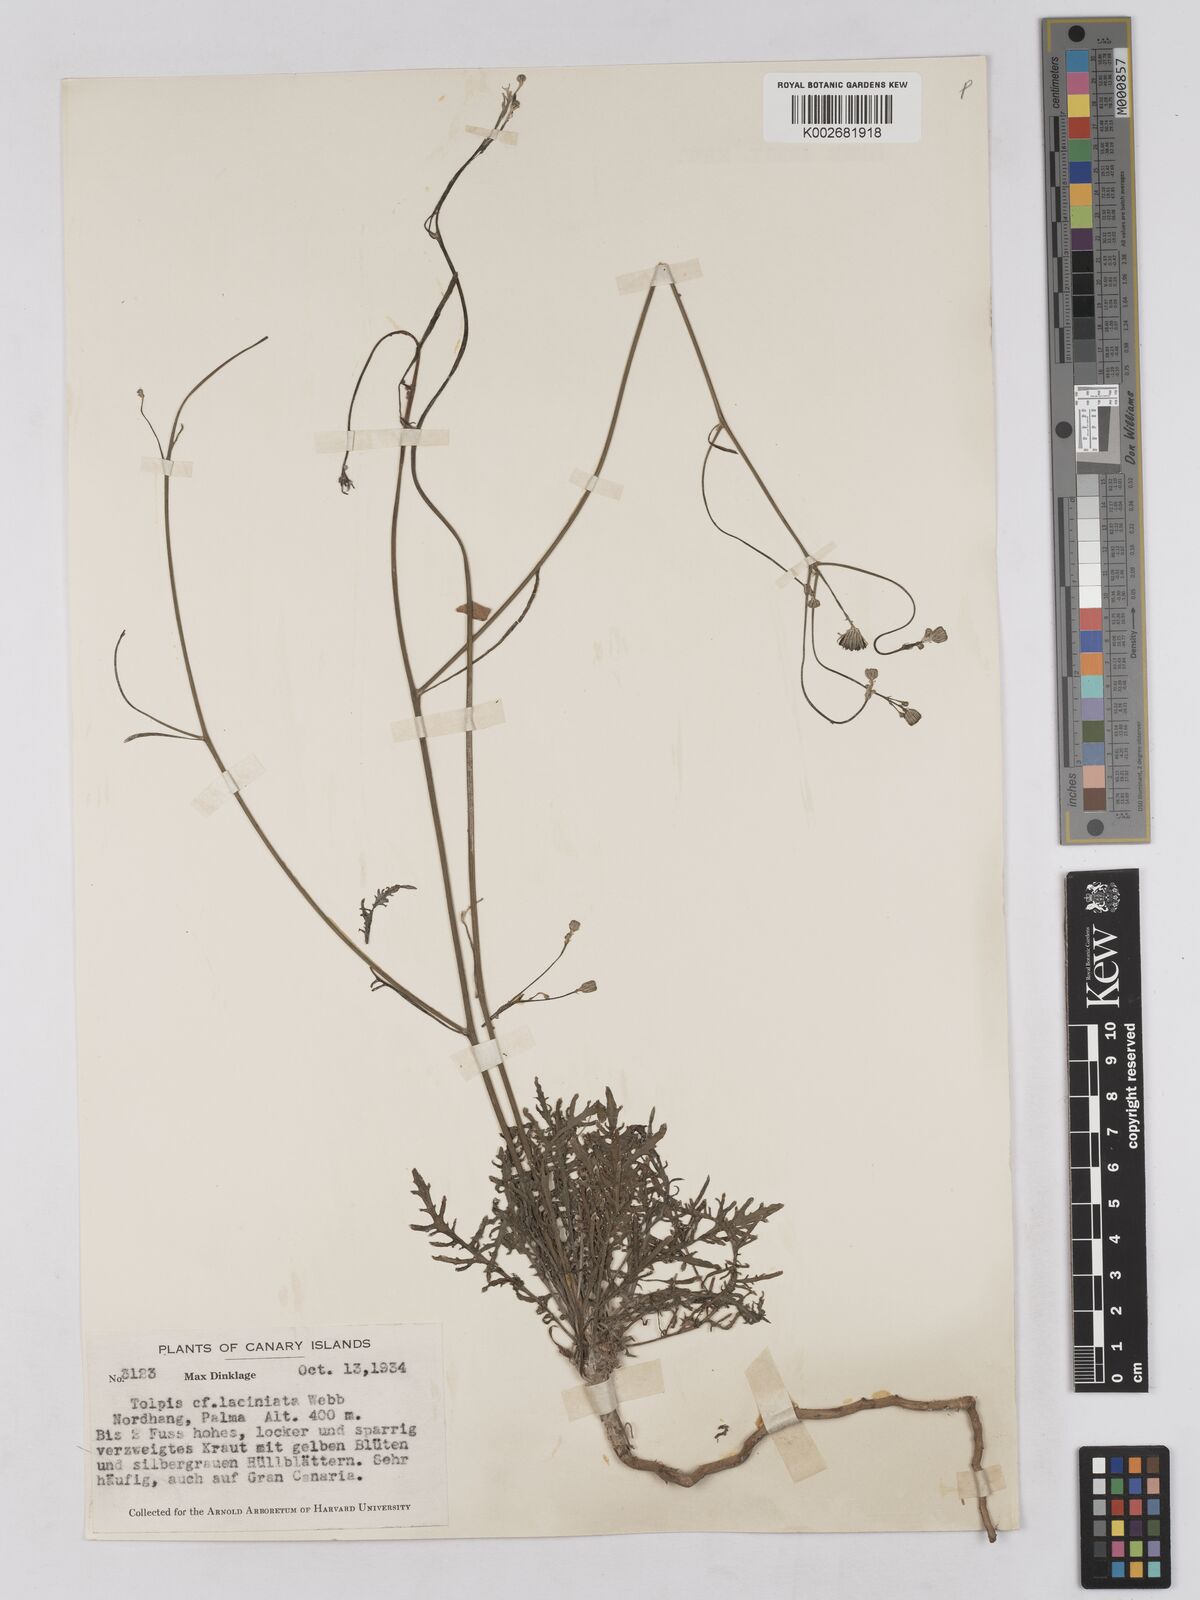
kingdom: Plantae
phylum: Tracheophyta
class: Magnoliopsida
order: Asterales
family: Asteraceae
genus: Tolpis
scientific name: Tolpis laciniata
